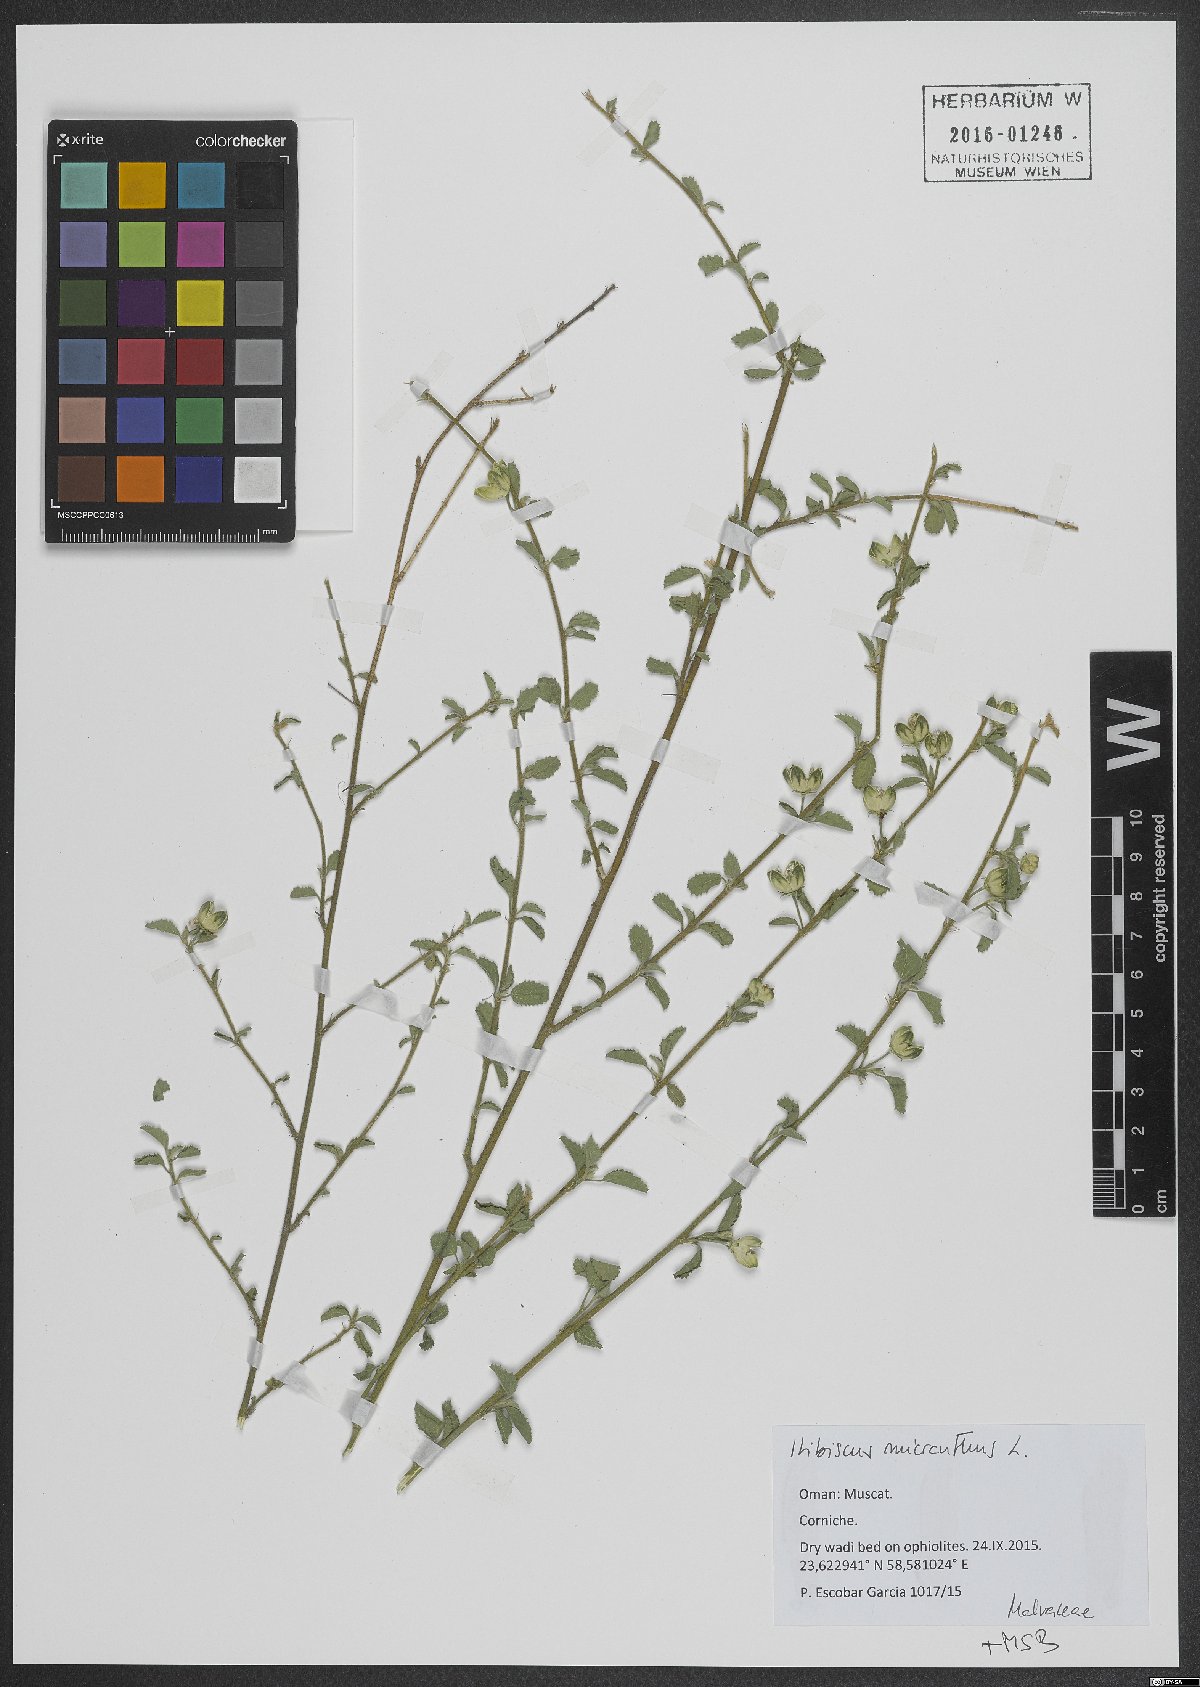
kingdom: Plantae
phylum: Tracheophyta
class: Magnoliopsida
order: Malvales
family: Malvaceae
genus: Hibiscus
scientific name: Hibiscus micranthus
